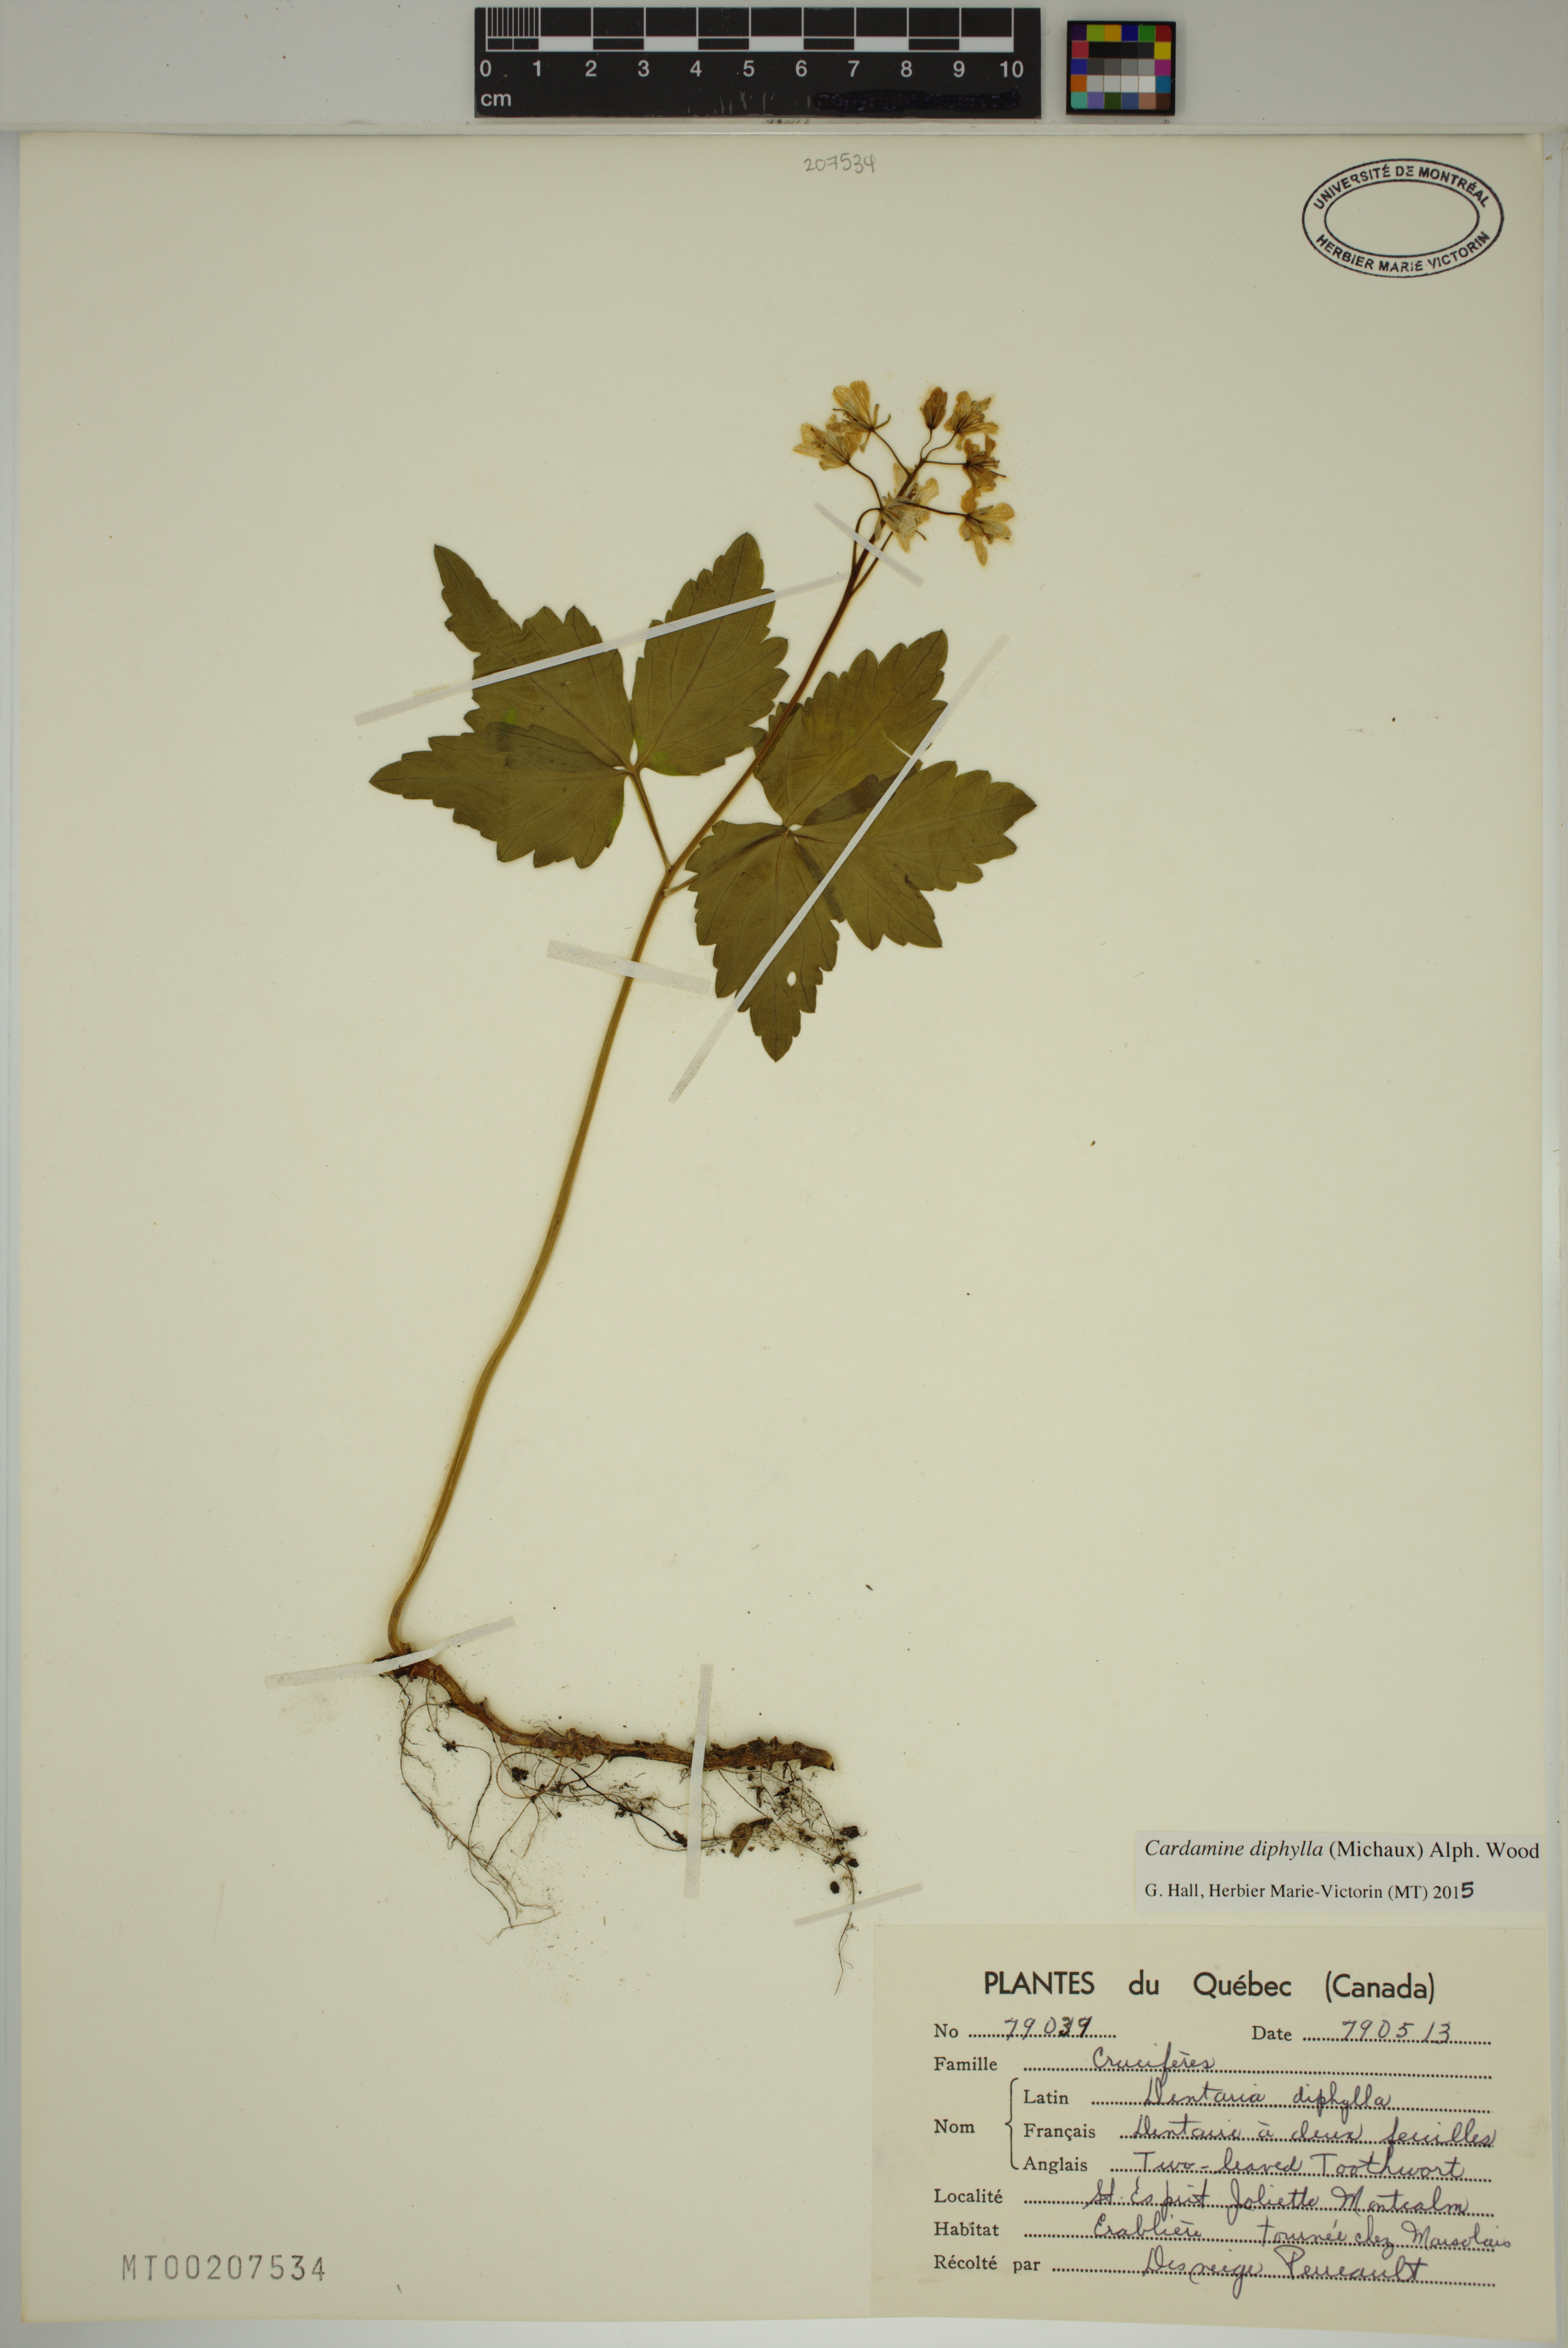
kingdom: Plantae
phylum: Tracheophyta
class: Magnoliopsida
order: Brassicales
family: Brassicaceae
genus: Cardamine
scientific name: Cardamine diphylla
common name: Broad-leaved toothwort
